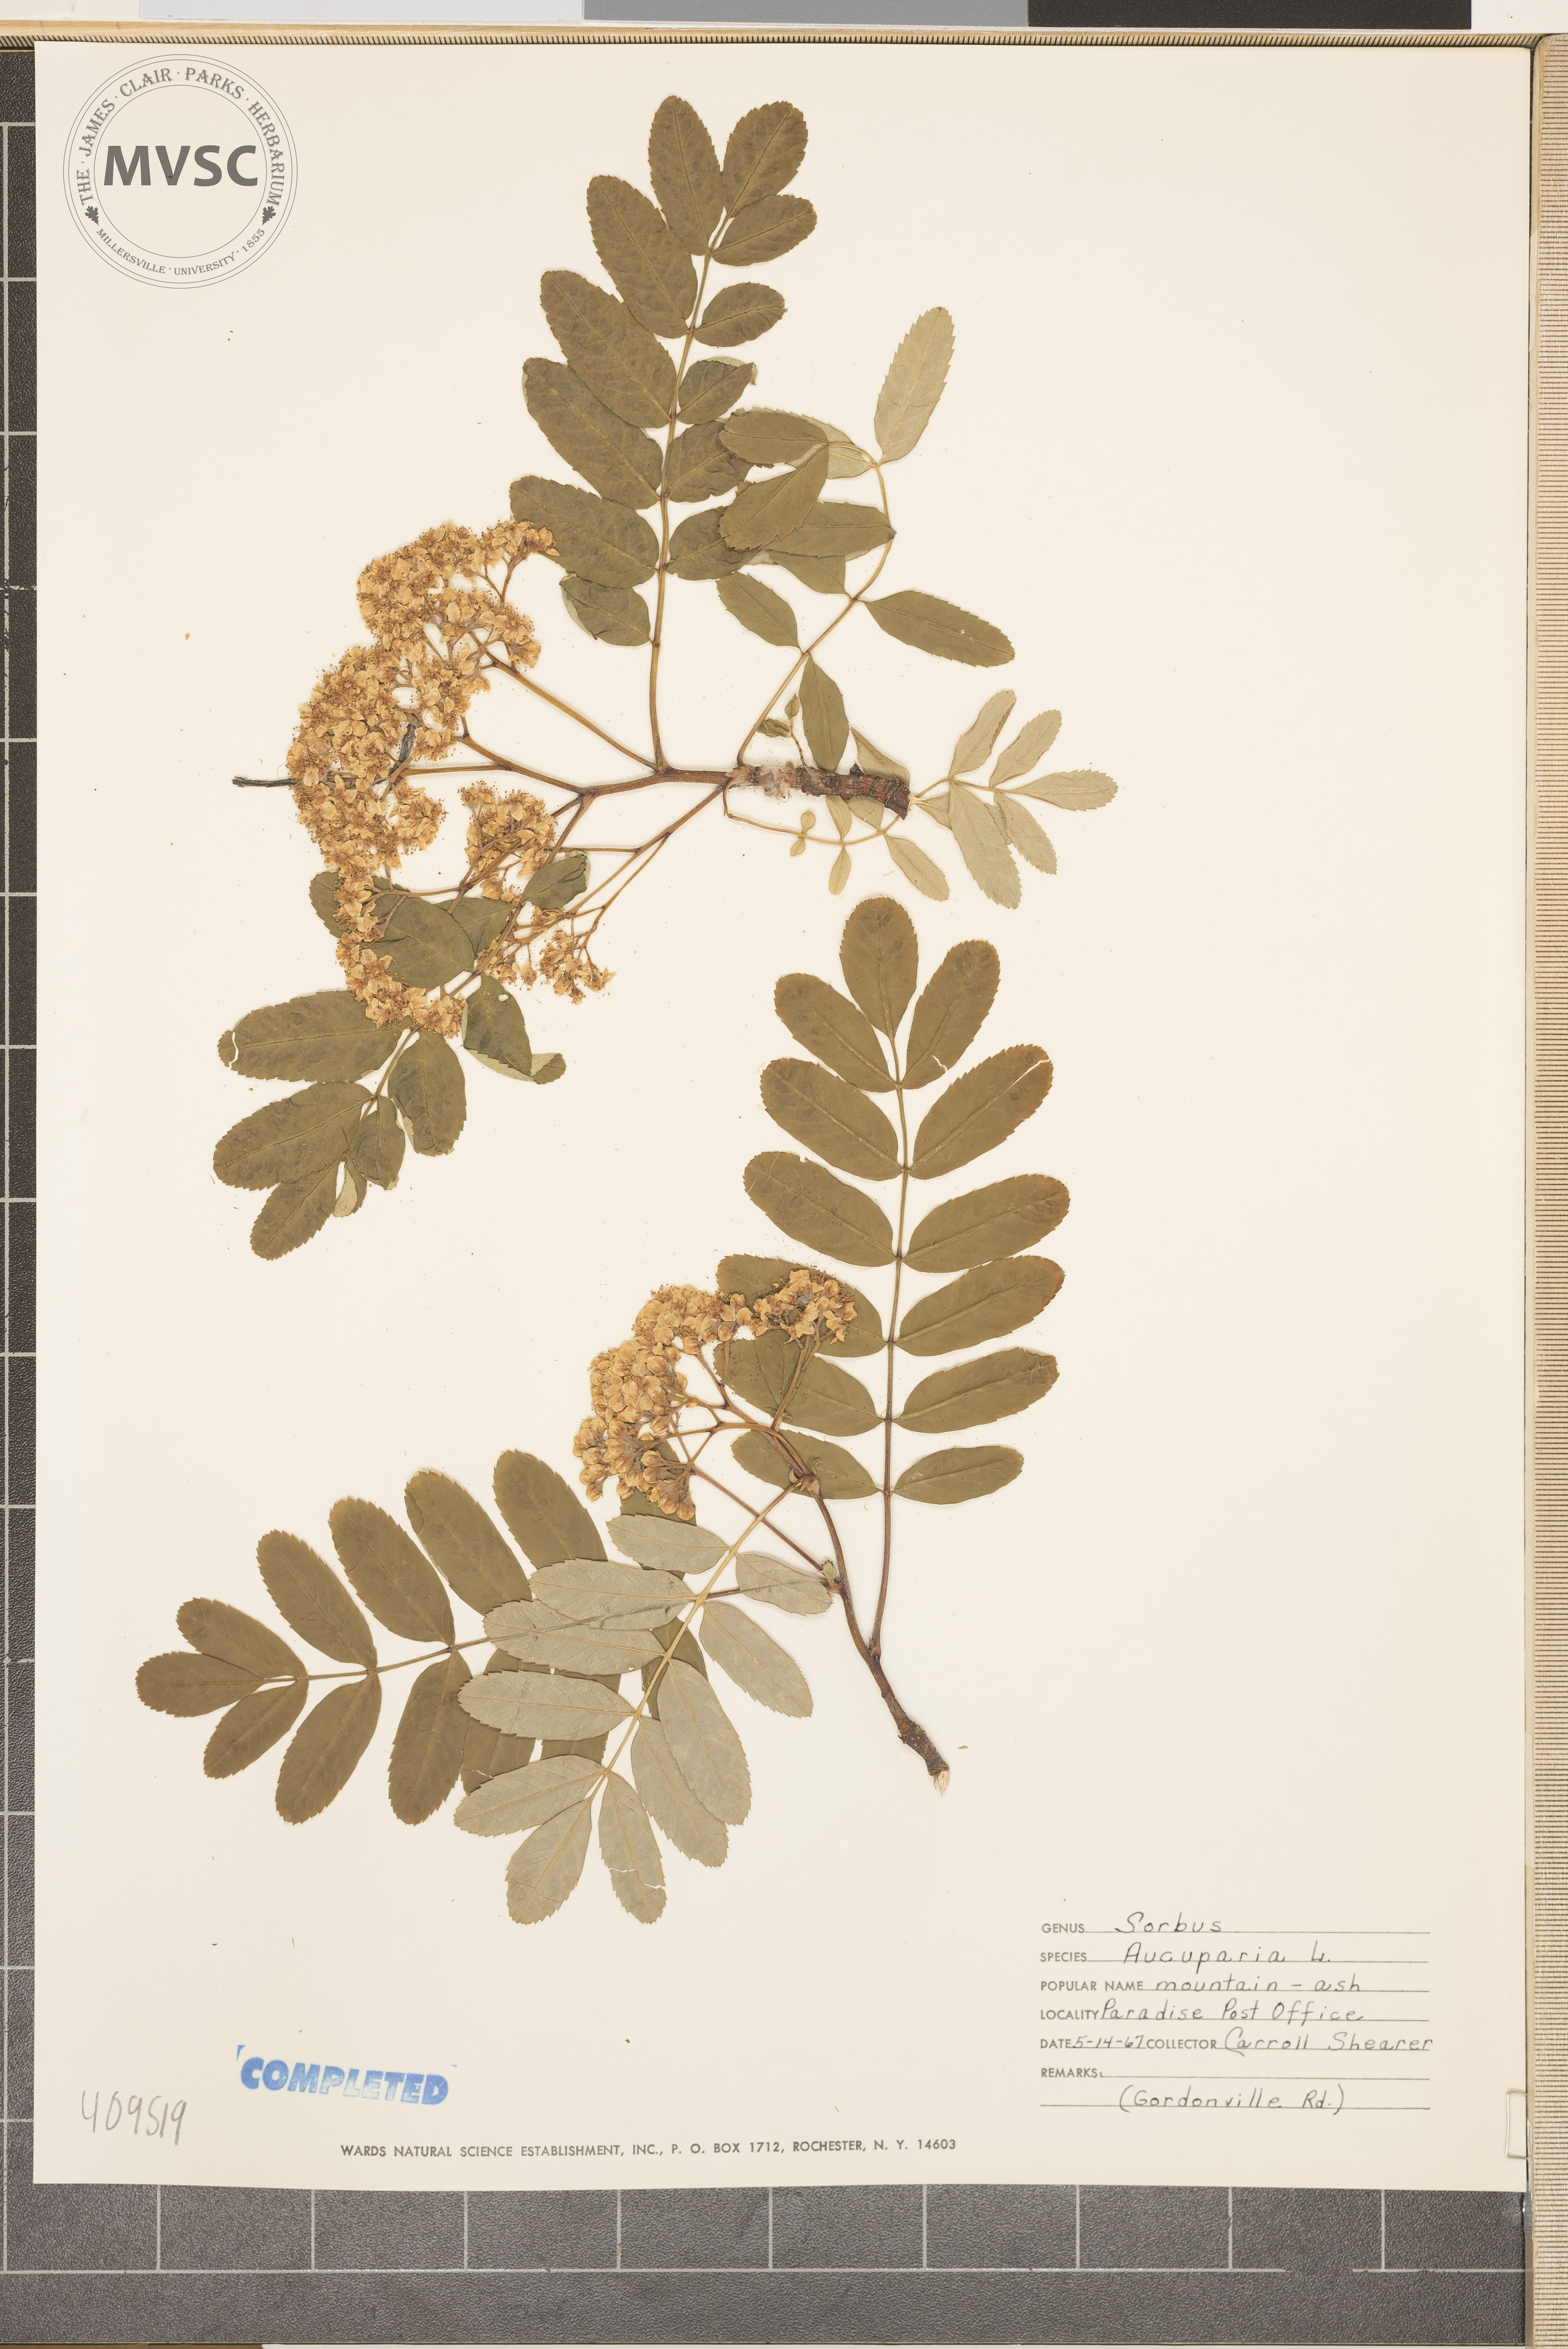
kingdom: Plantae
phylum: Tracheophyta
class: Magnoliopsida
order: Rosales
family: Rosaceae
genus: Sorbus
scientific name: Sorbus aucuparia
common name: Rowan
